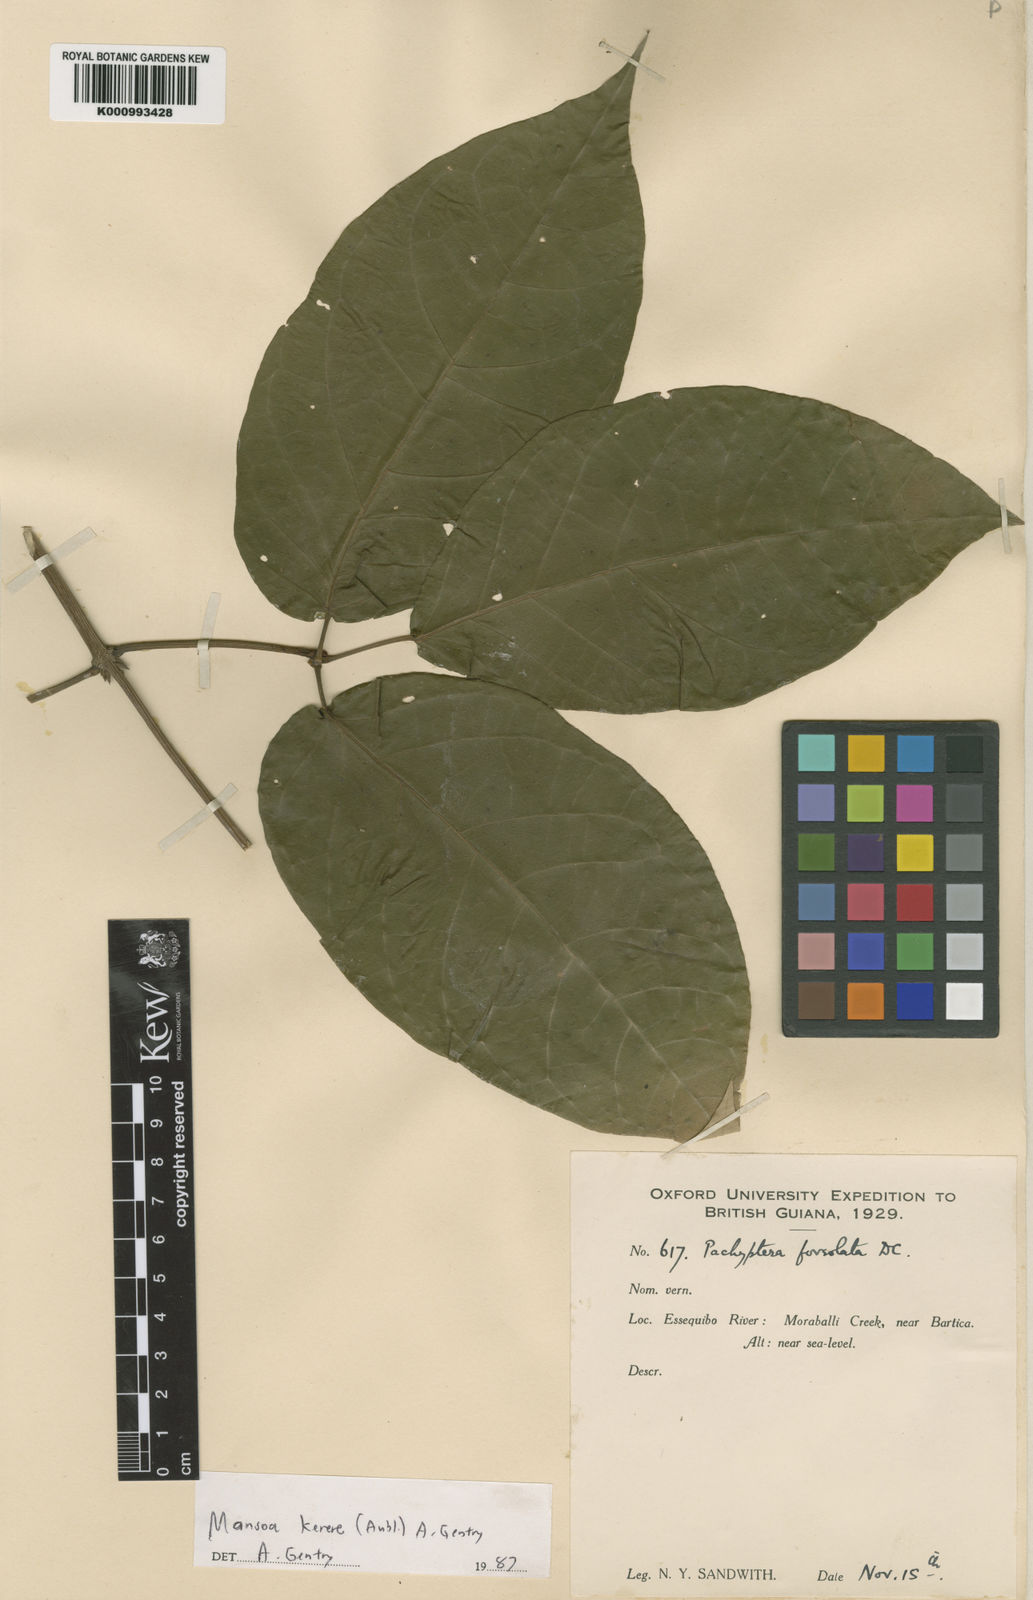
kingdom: Plantae
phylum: Tracheophyta
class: Magnoliopsida
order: Lamiales
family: Bignoniaceae
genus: Pachyptera
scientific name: Pachyptera kerere
